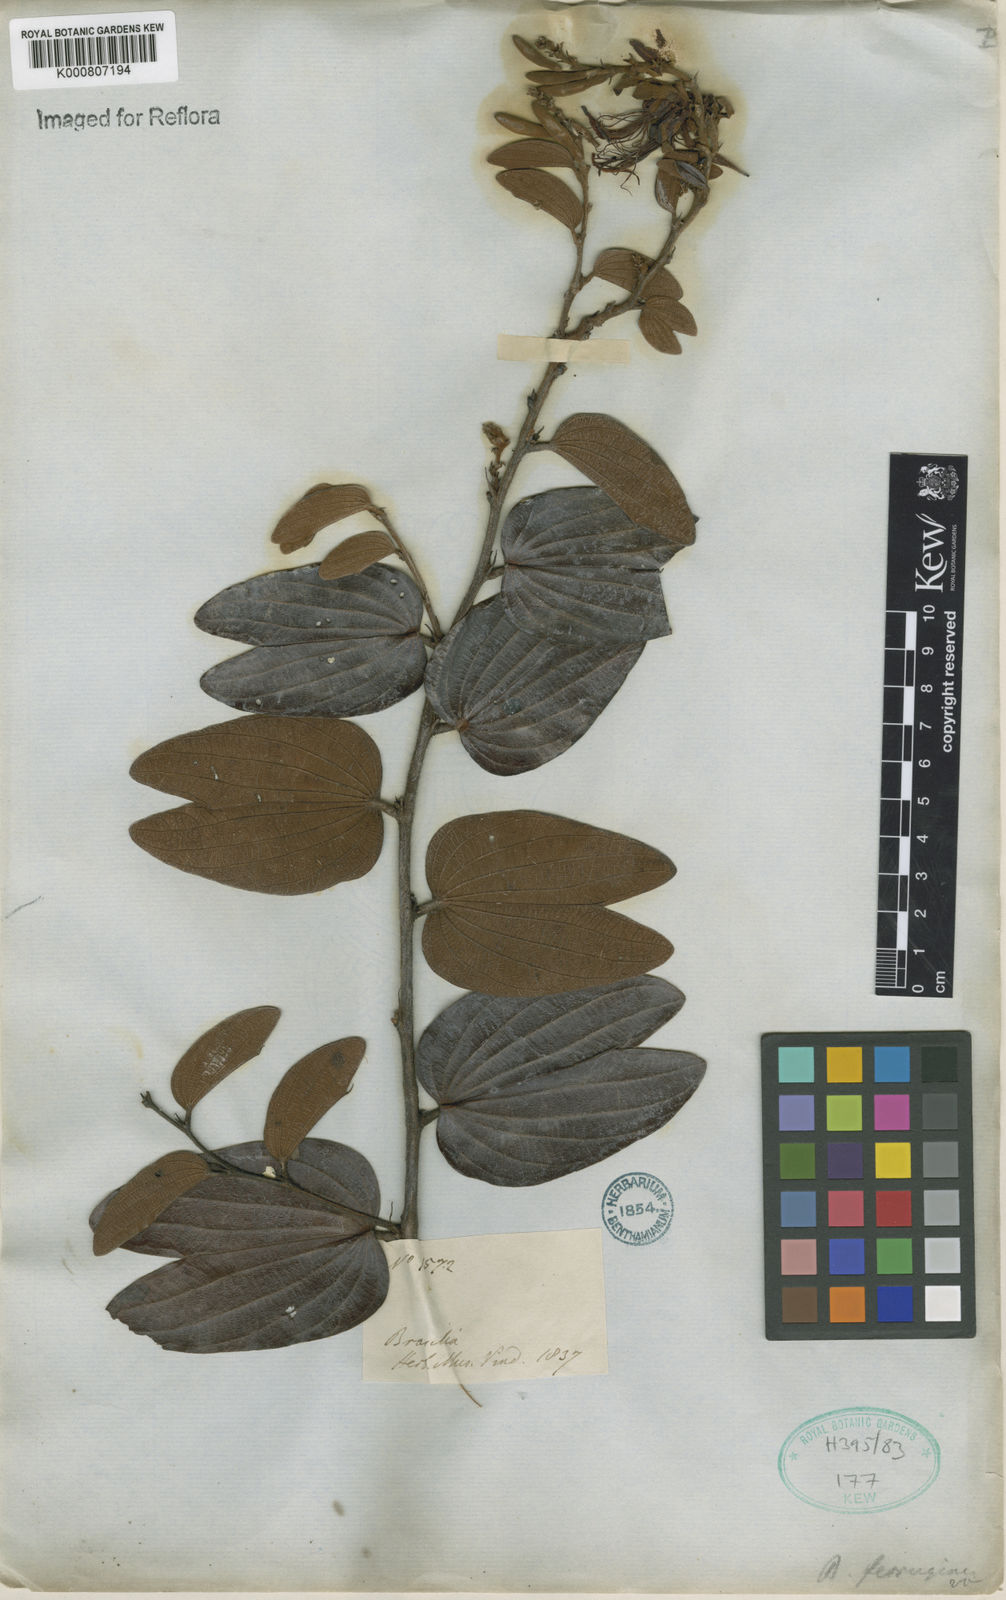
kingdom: Plantae
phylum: Tracheophyta
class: Magnoliopsida
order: Fabales
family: Fabaceae
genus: Bauhinia
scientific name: Bauhinia brevipes
